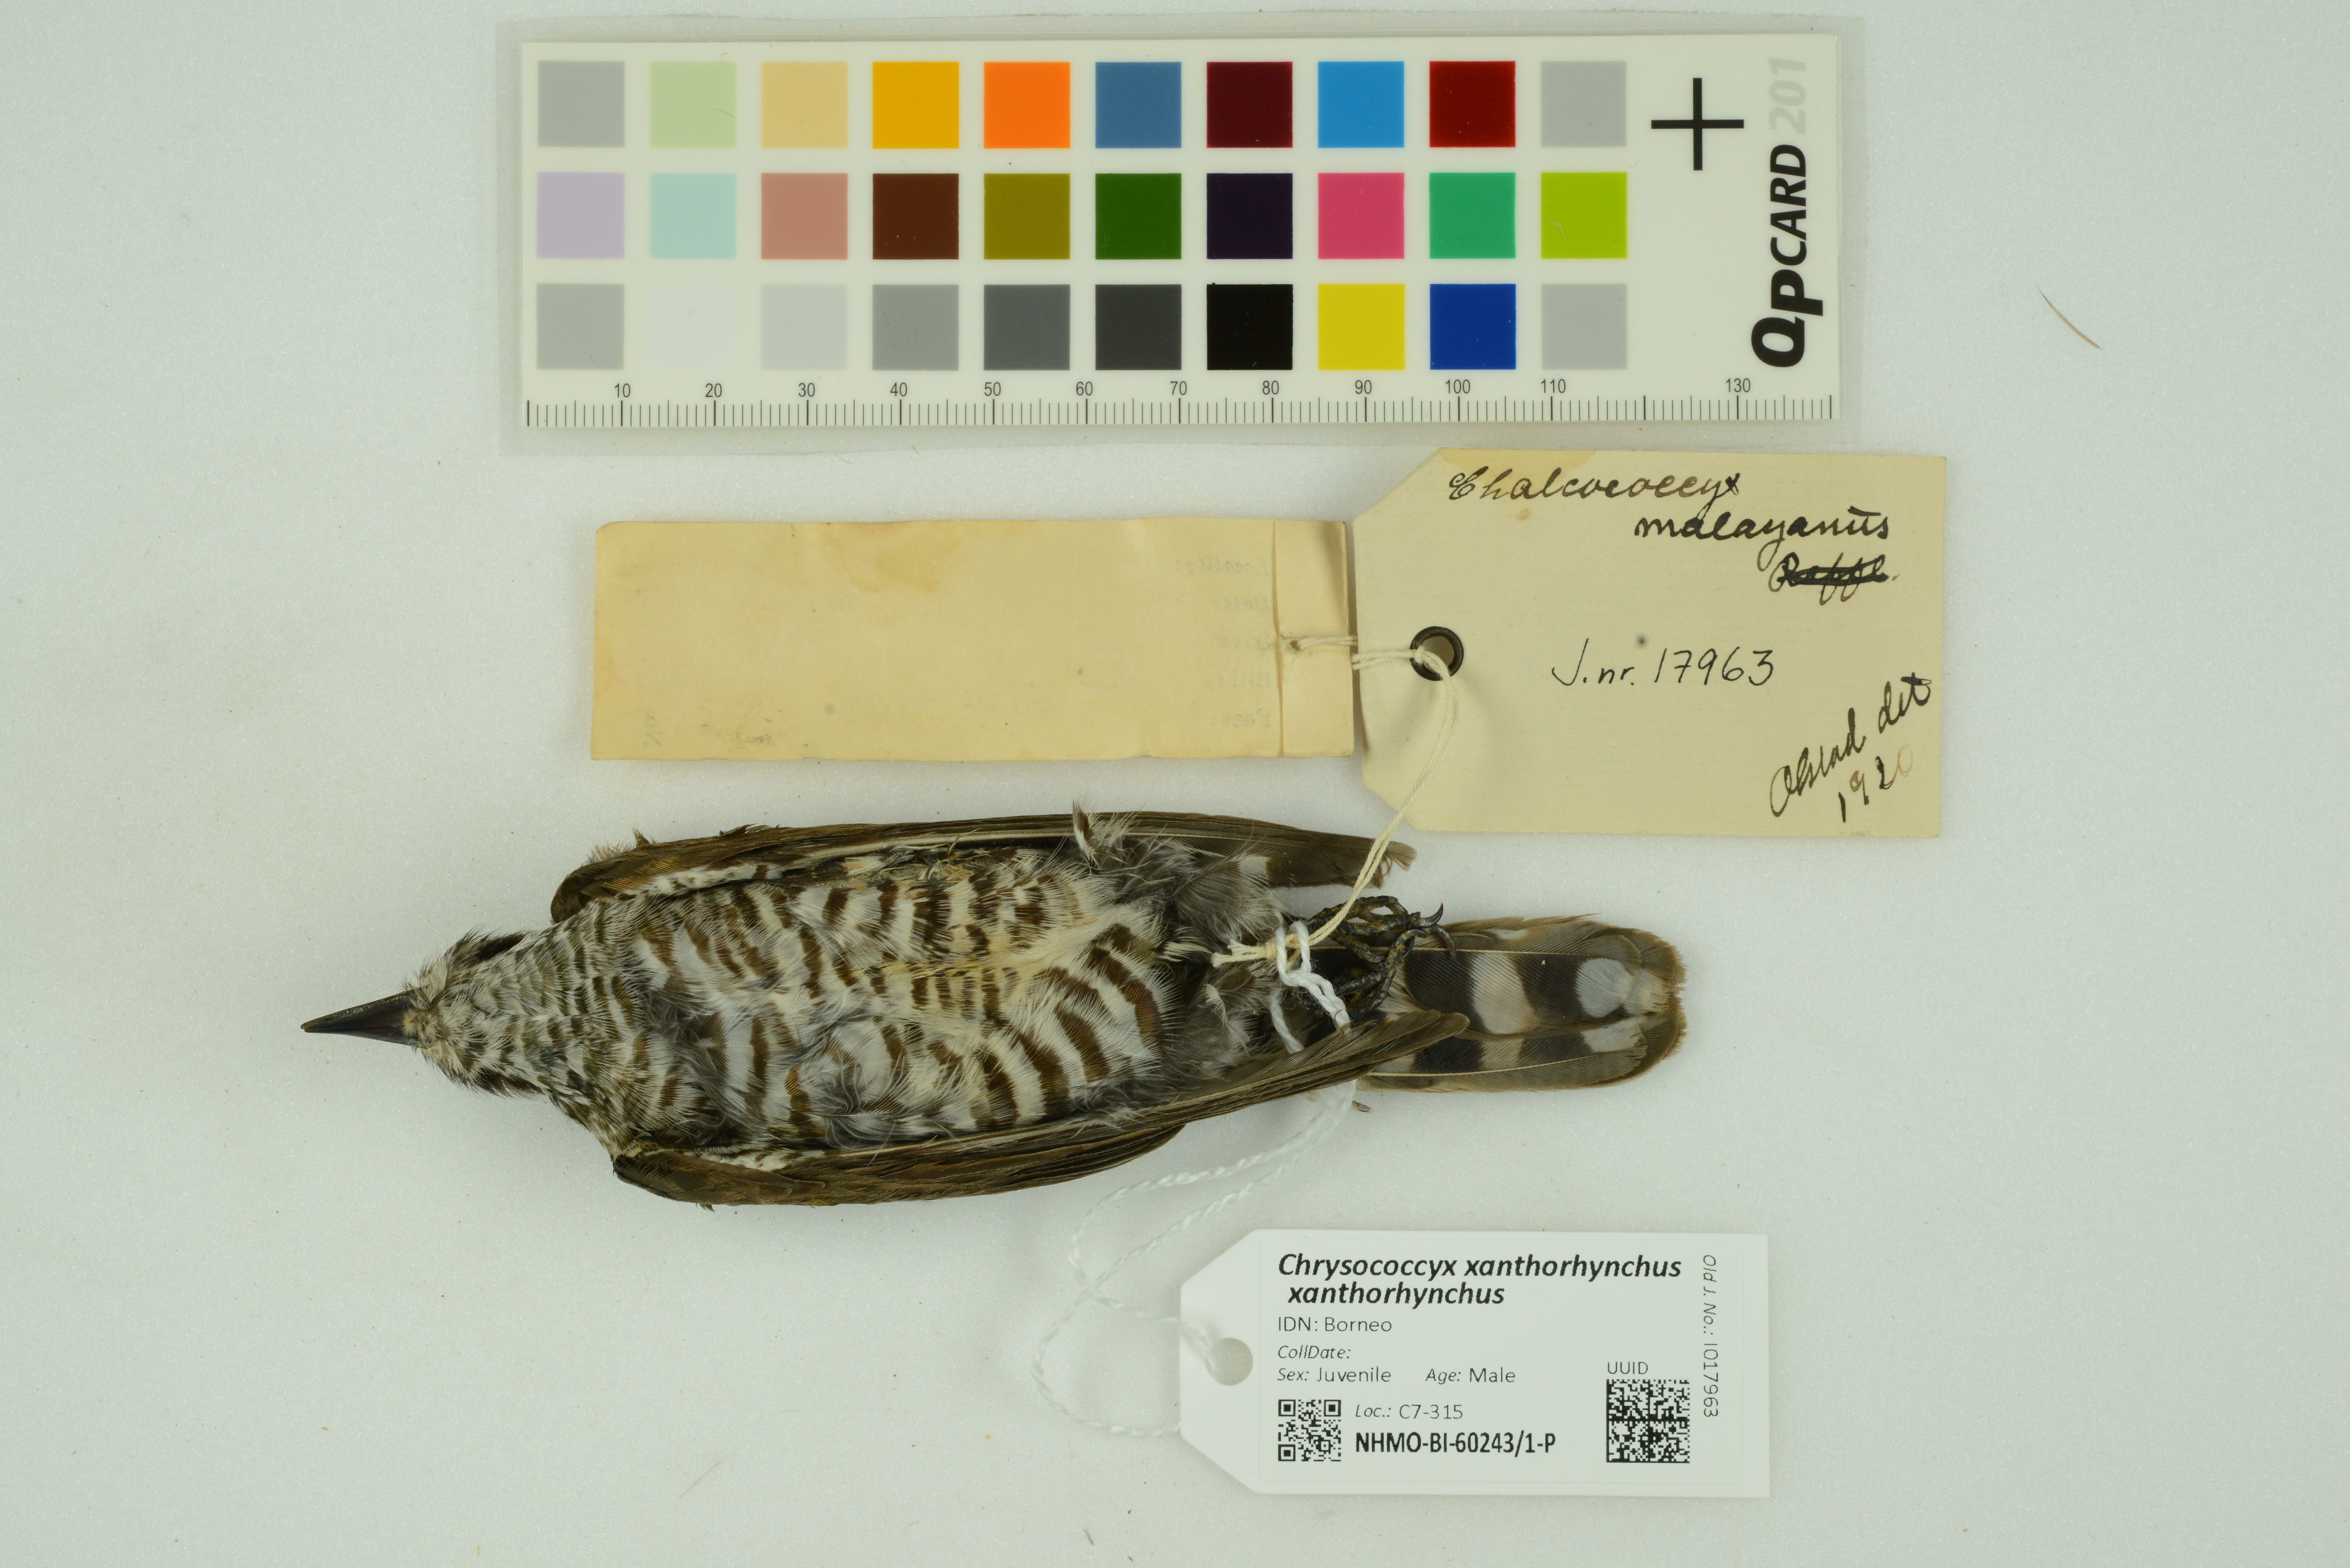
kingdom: Animalia
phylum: Chordata
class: Aves
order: Cuculiformes
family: Cuculidae
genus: Chrysococcyx
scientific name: Chrysococcyx xanthorhynchus
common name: Violet cuckoo
